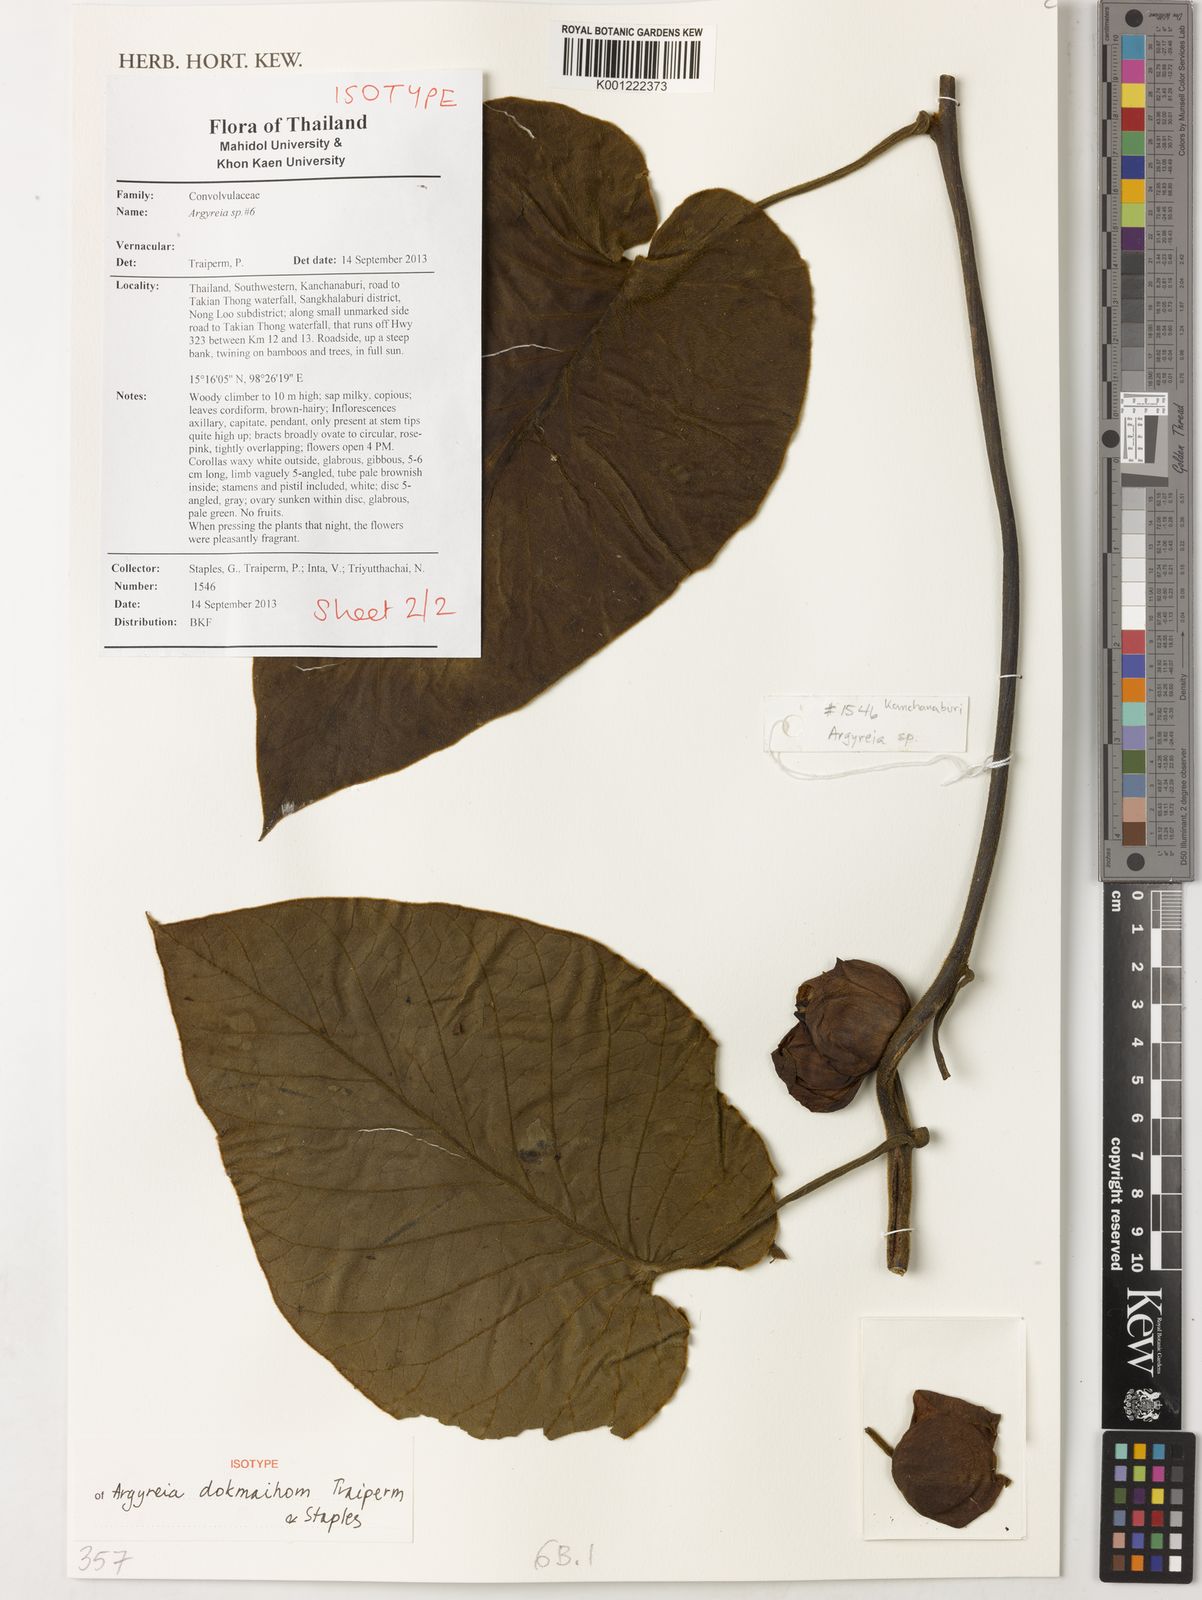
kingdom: Plantae
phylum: Tracheophyta
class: Magnoliopsida
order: Solanales
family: Convolvulaceae
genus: Argyreia
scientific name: Argyreia dokmaihom
